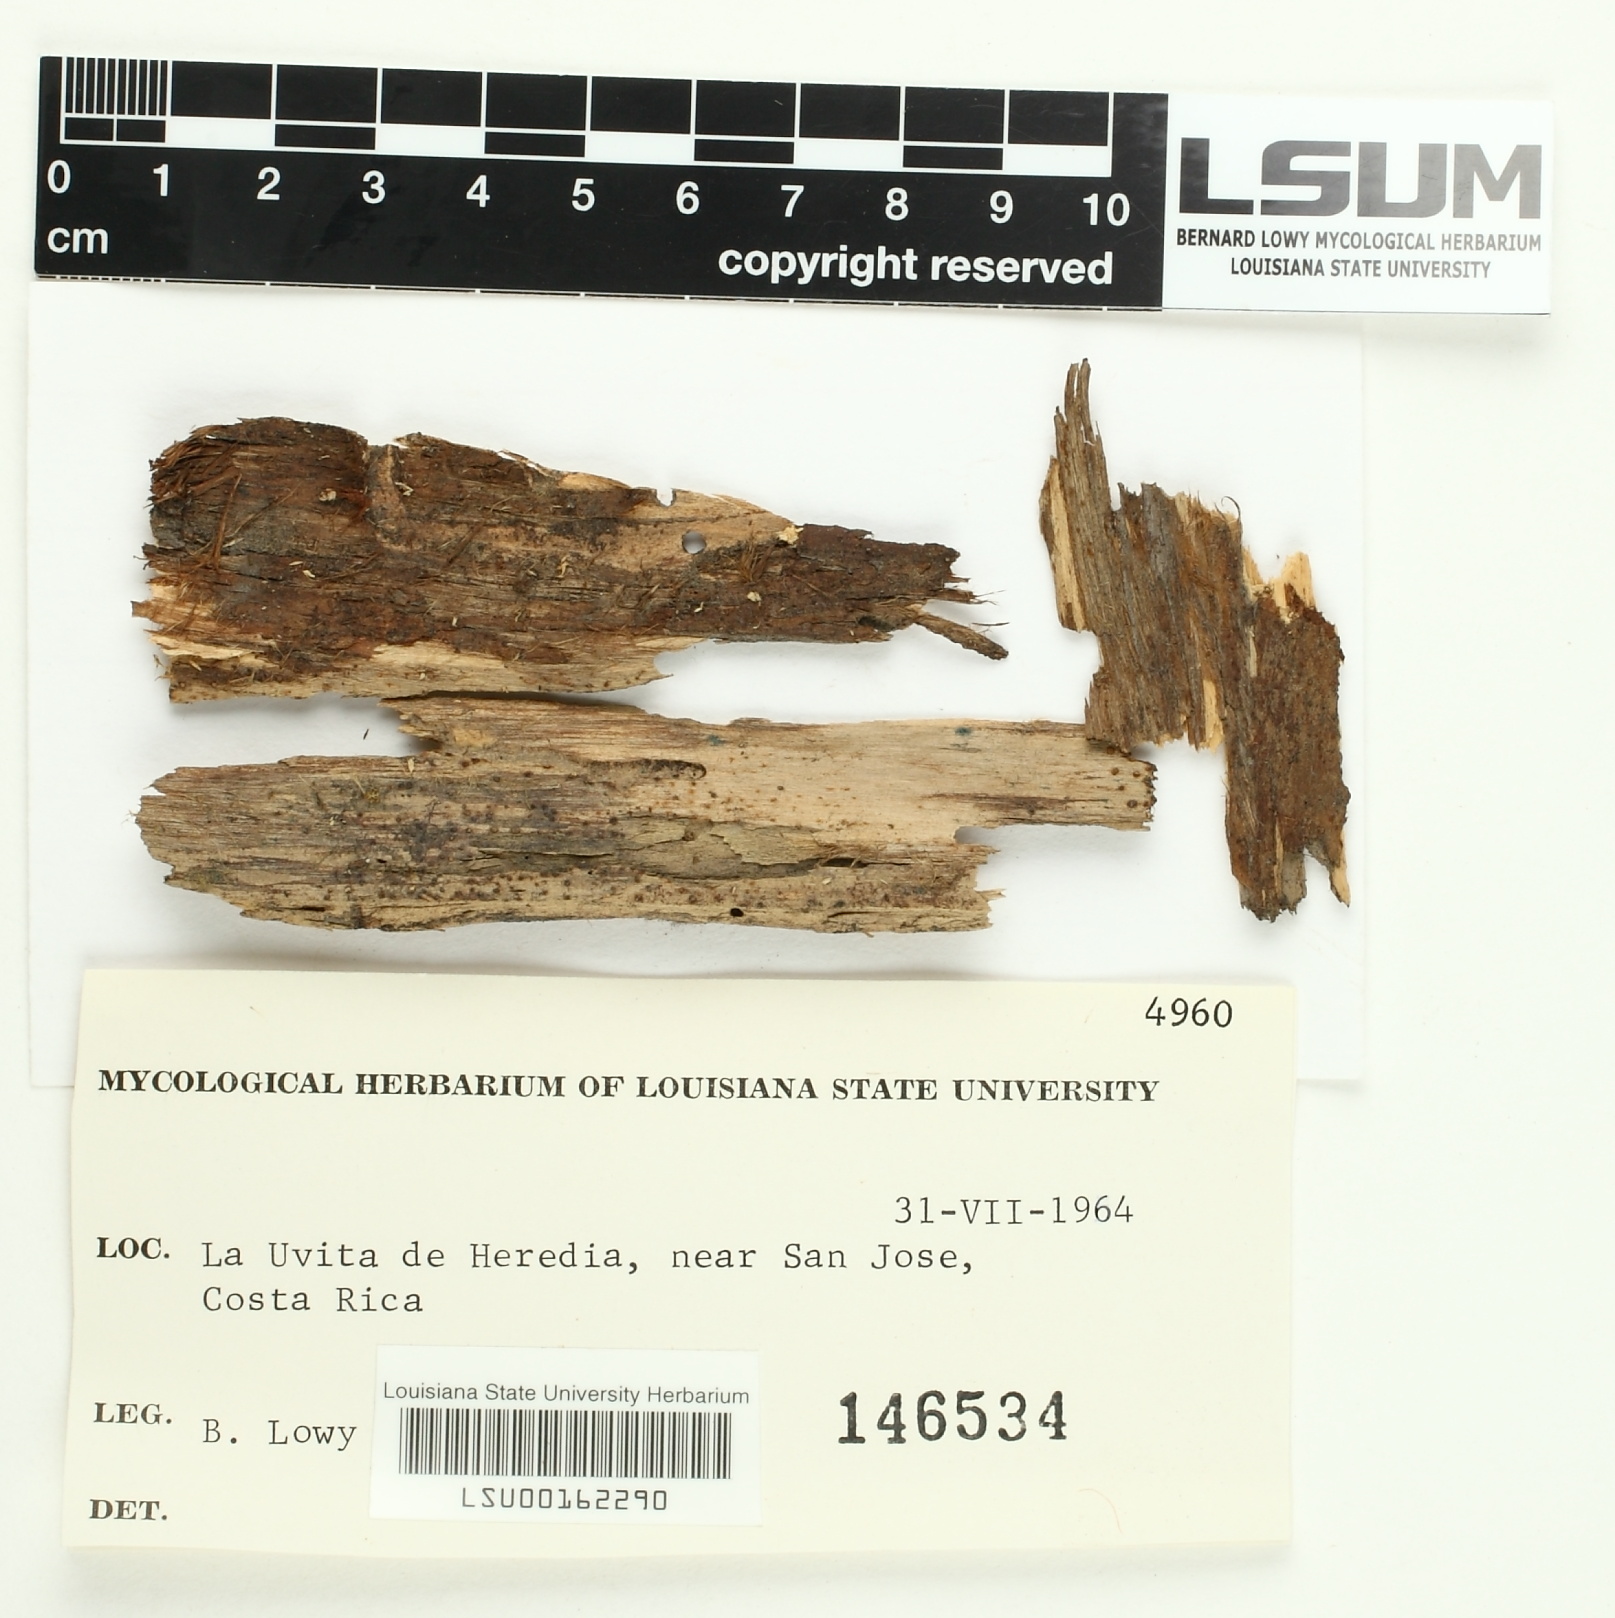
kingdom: Fungi
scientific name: Fungi
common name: Fungi
